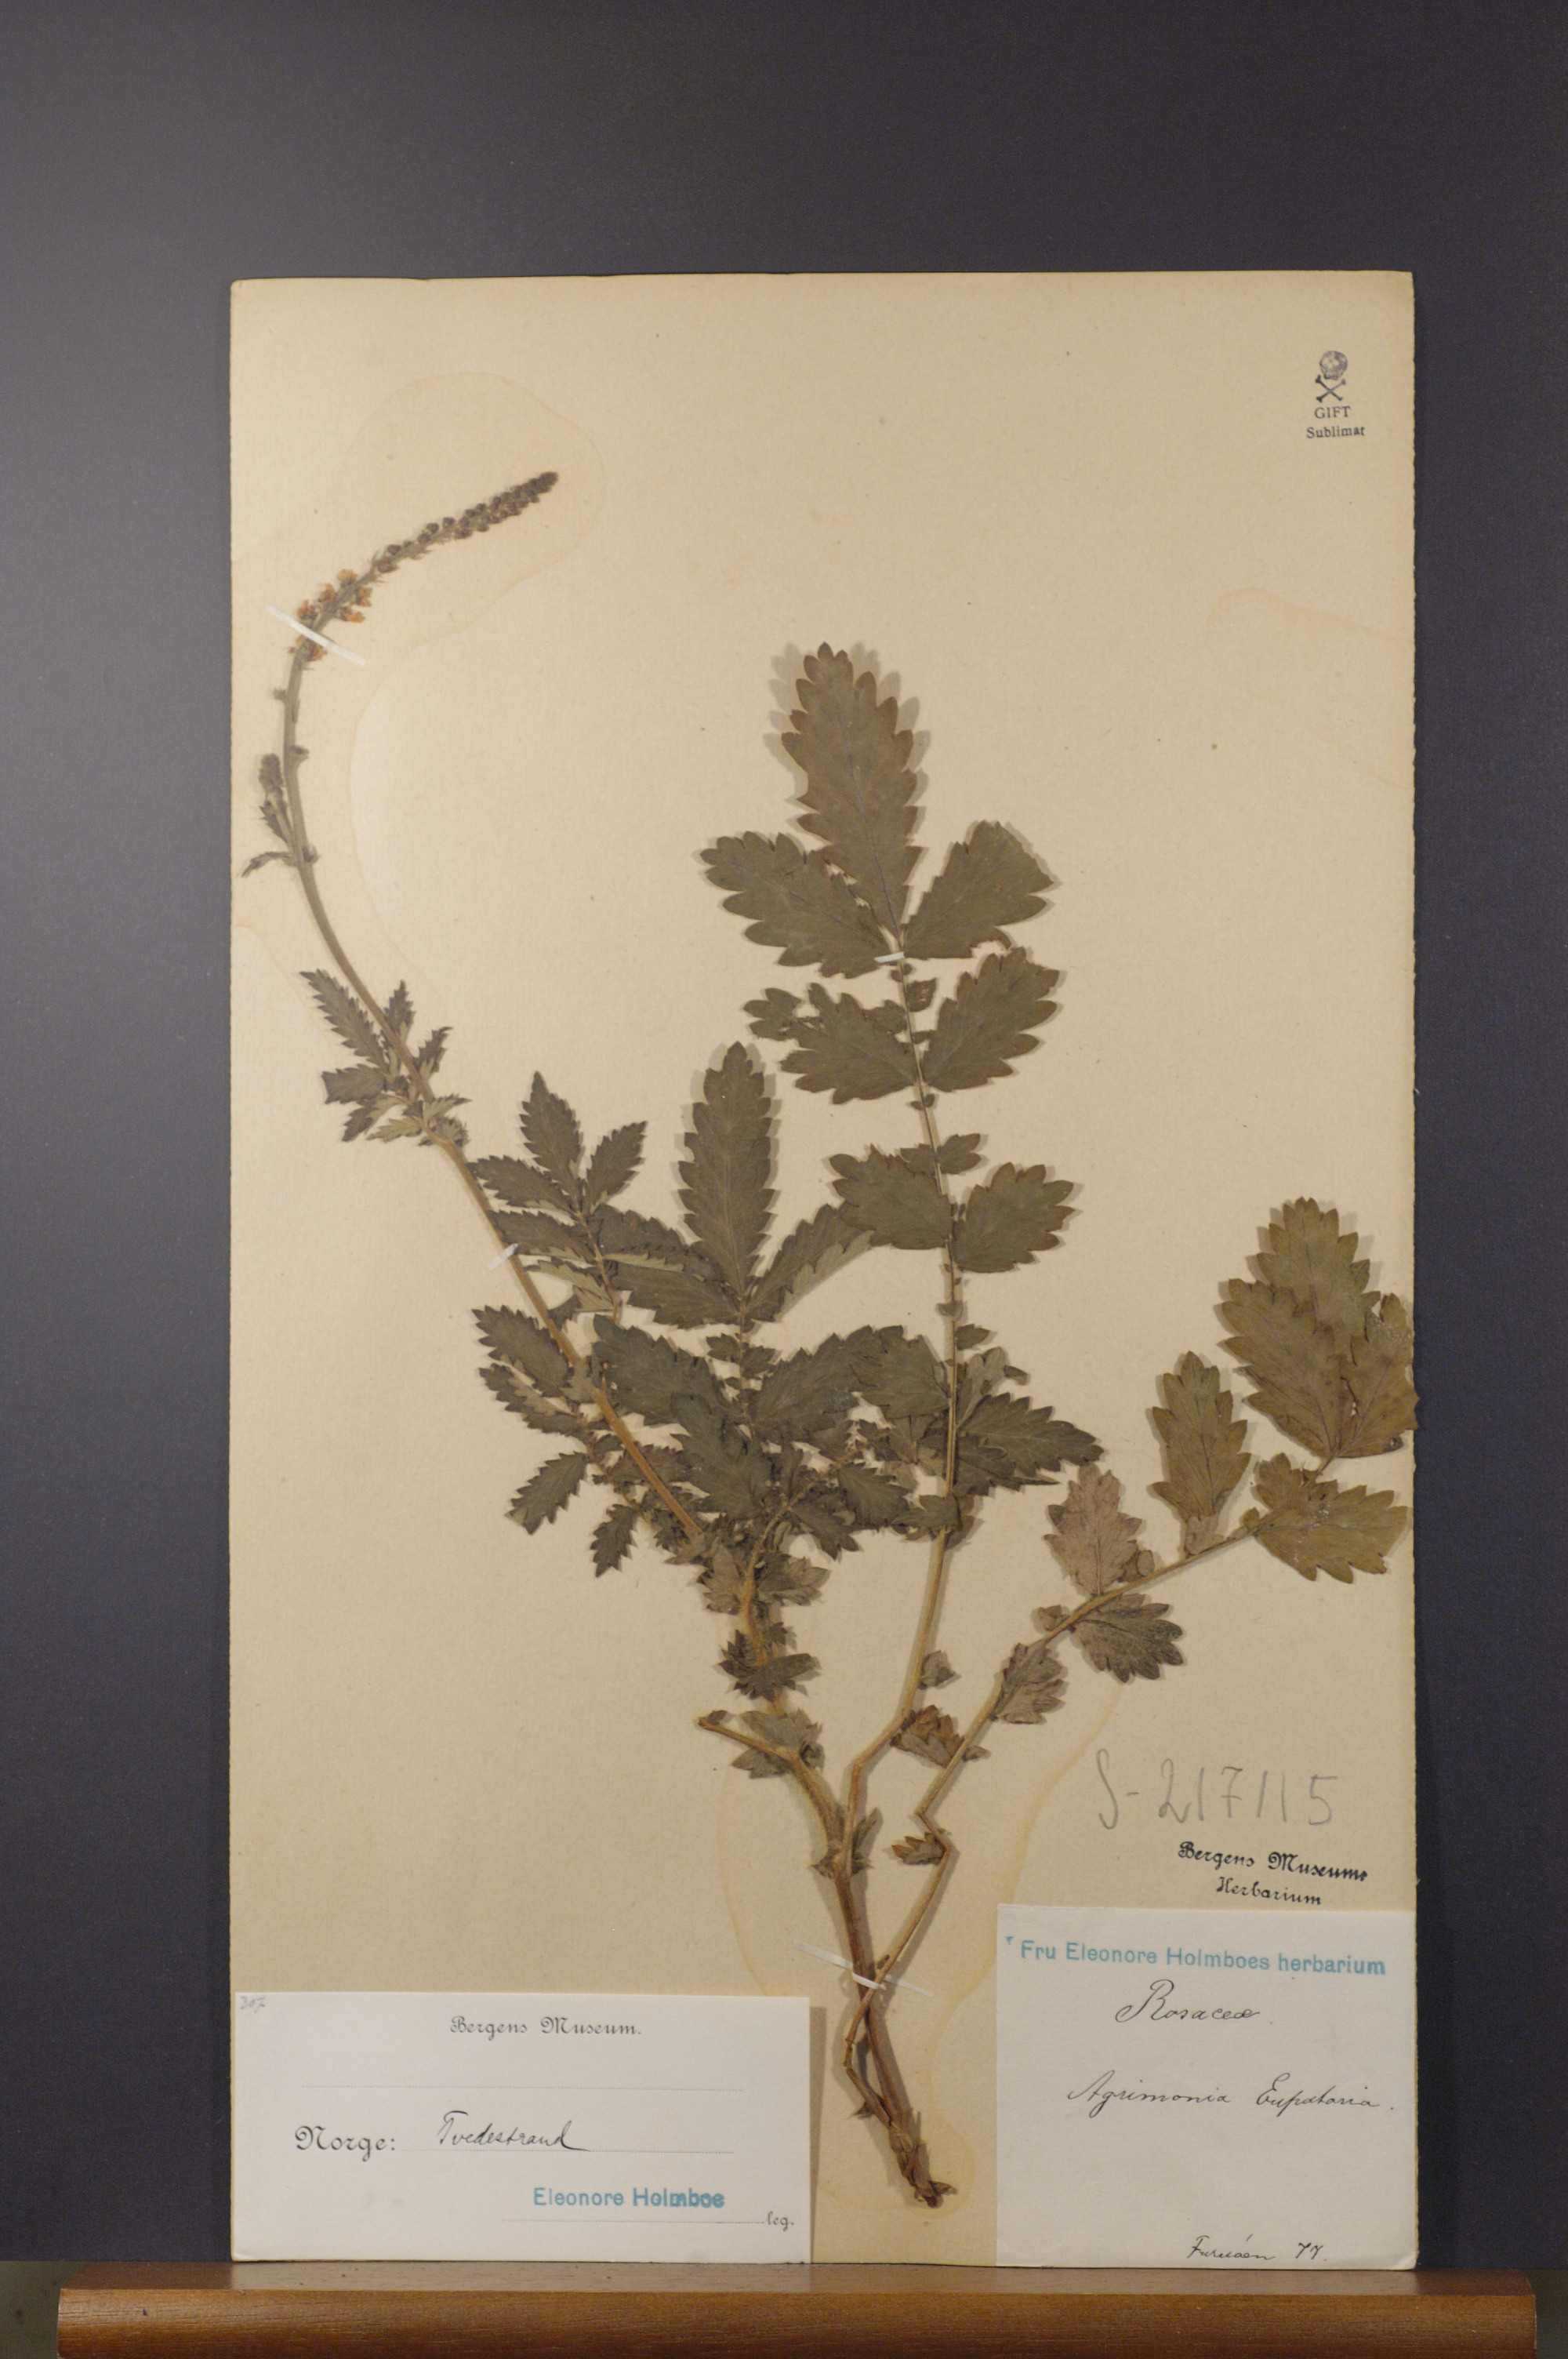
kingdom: Plantae
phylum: Tracheophyta
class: Magnoliopsida
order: Rosales
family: Rosaceae
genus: Agrimonia
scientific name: Agrimonia eupatoria
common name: Agrimony
